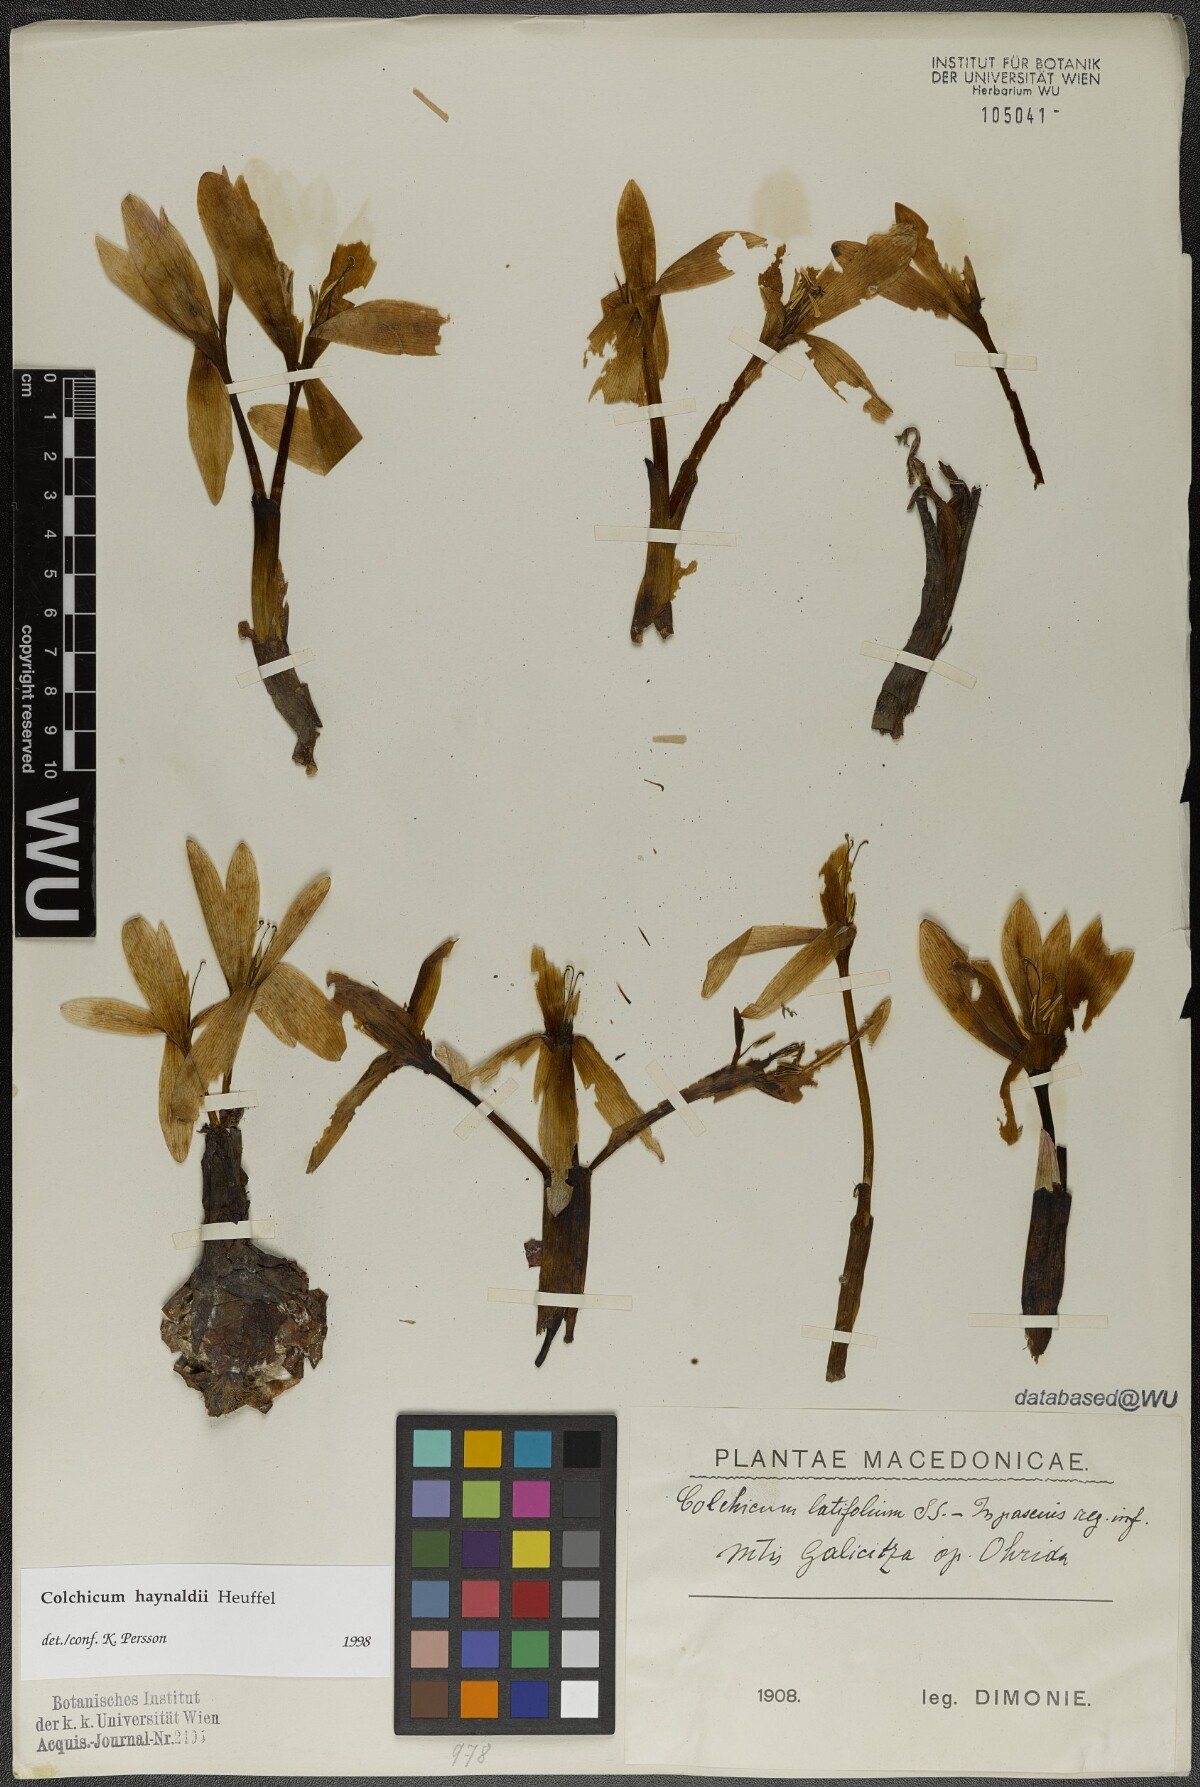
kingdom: Plantae
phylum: Tracheophyta
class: Liliopsida
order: Liliales
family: Colchicaceae
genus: Colchicum
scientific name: Colchicum haynaldii
